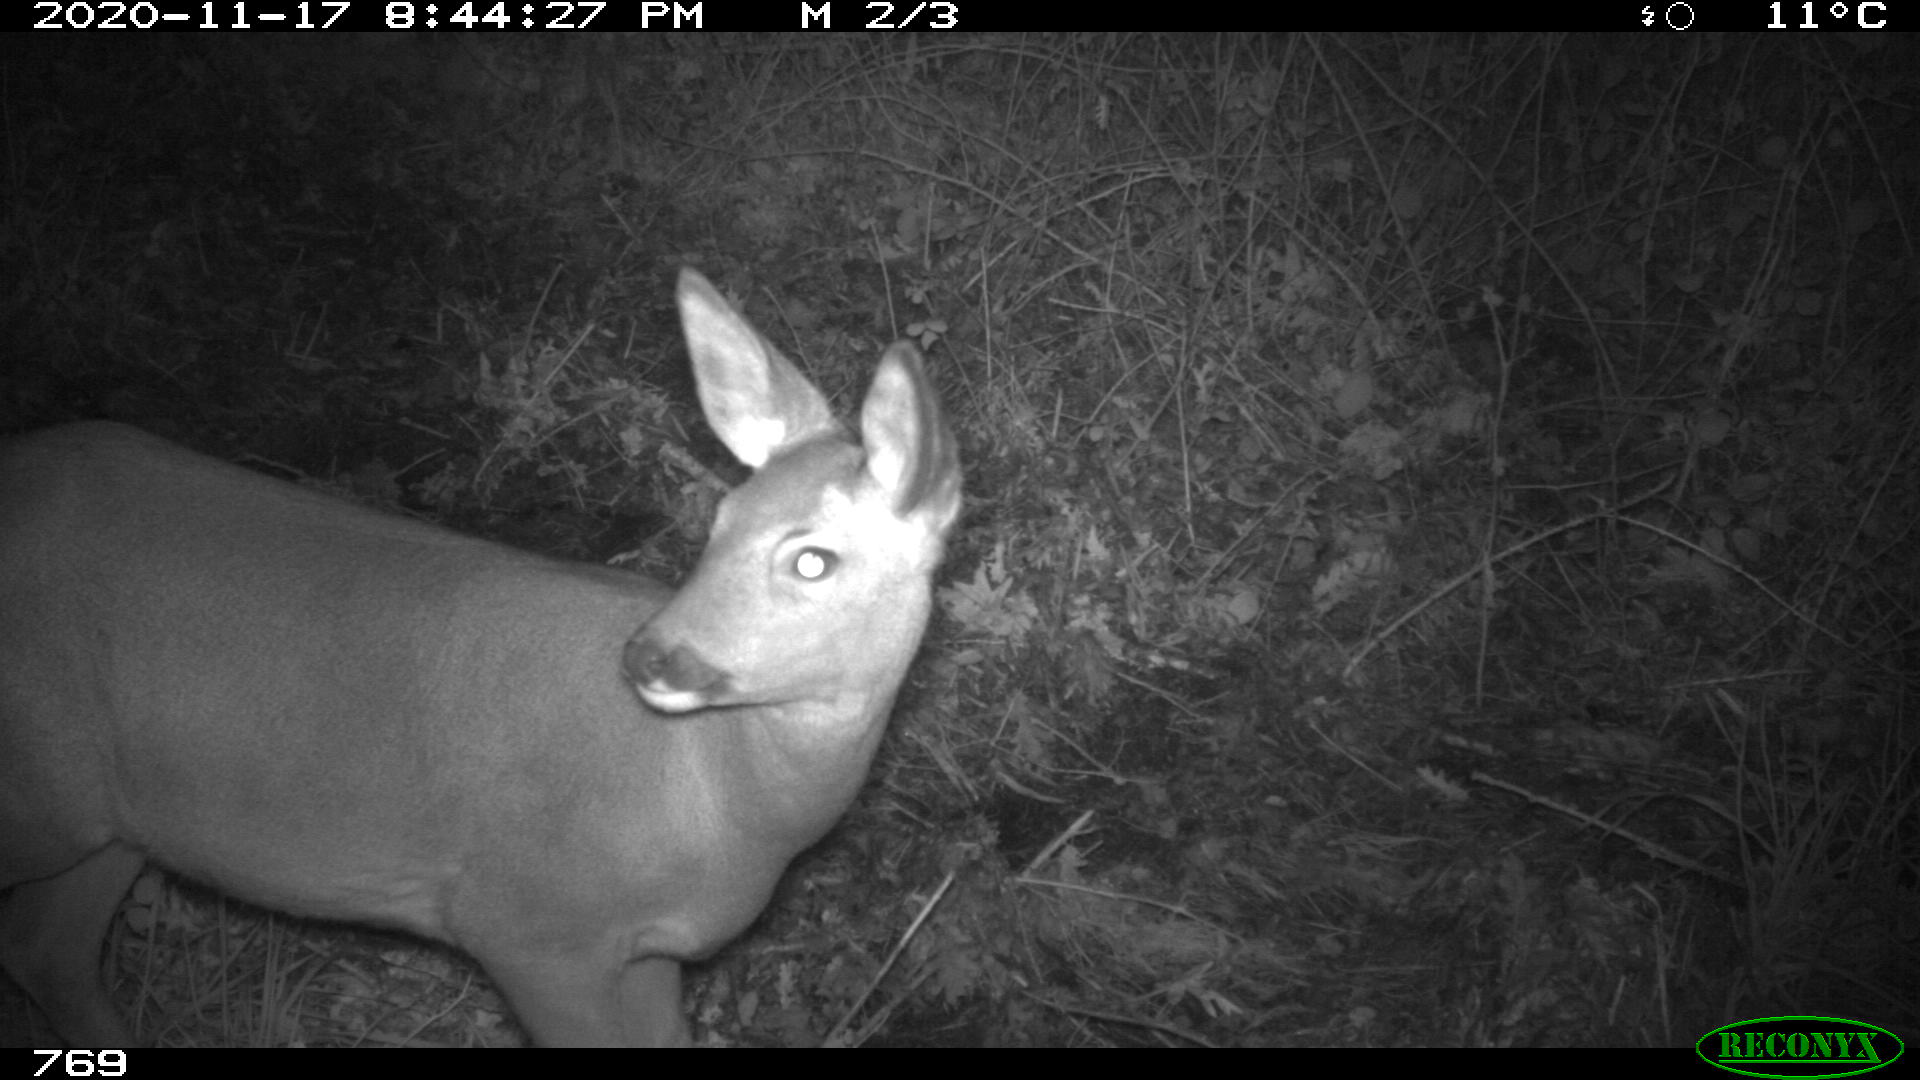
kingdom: Animalia
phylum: Chordata
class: Mammalia
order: Artiodactyla
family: Cervidae
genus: Capreolus
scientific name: Capreolus capreolus
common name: Western roe deer
